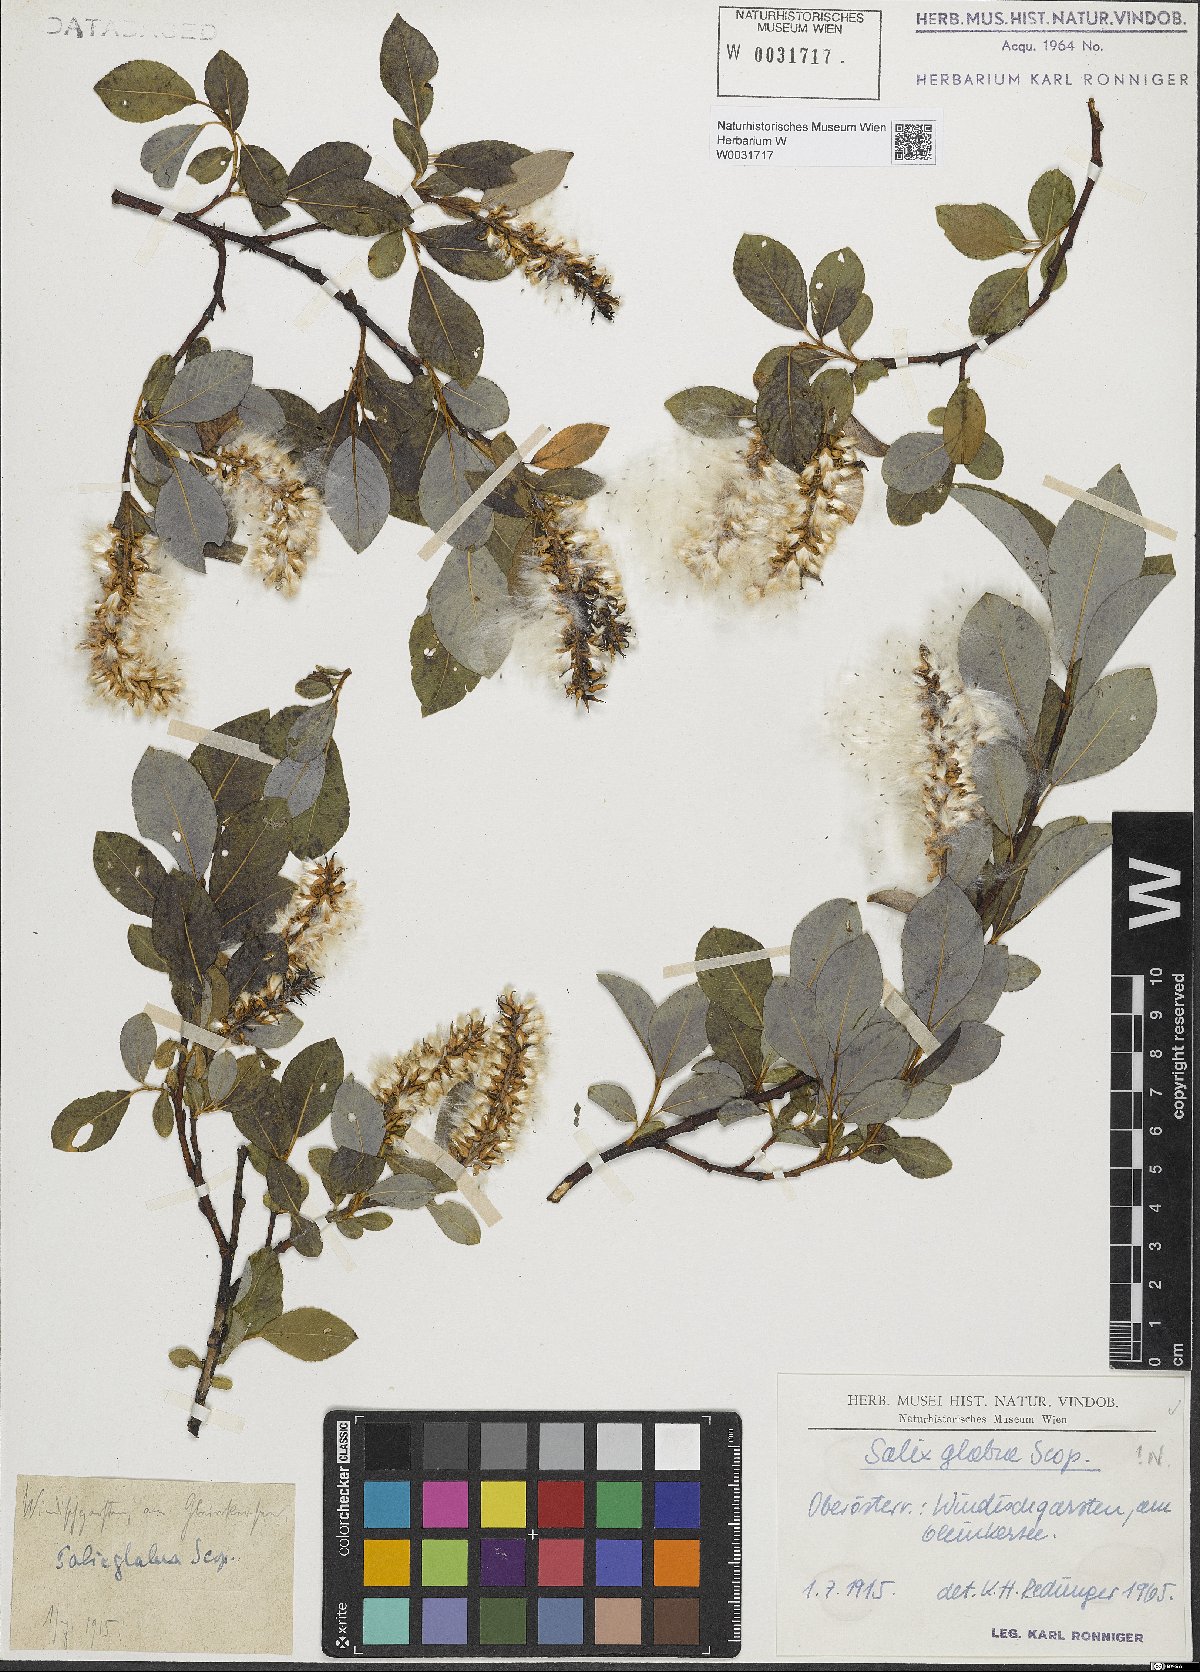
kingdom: Plantae
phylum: Tracheophyta
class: Magnoliopsida
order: Malpighiales
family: Salicaceae
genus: Salix
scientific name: Salix glabra
